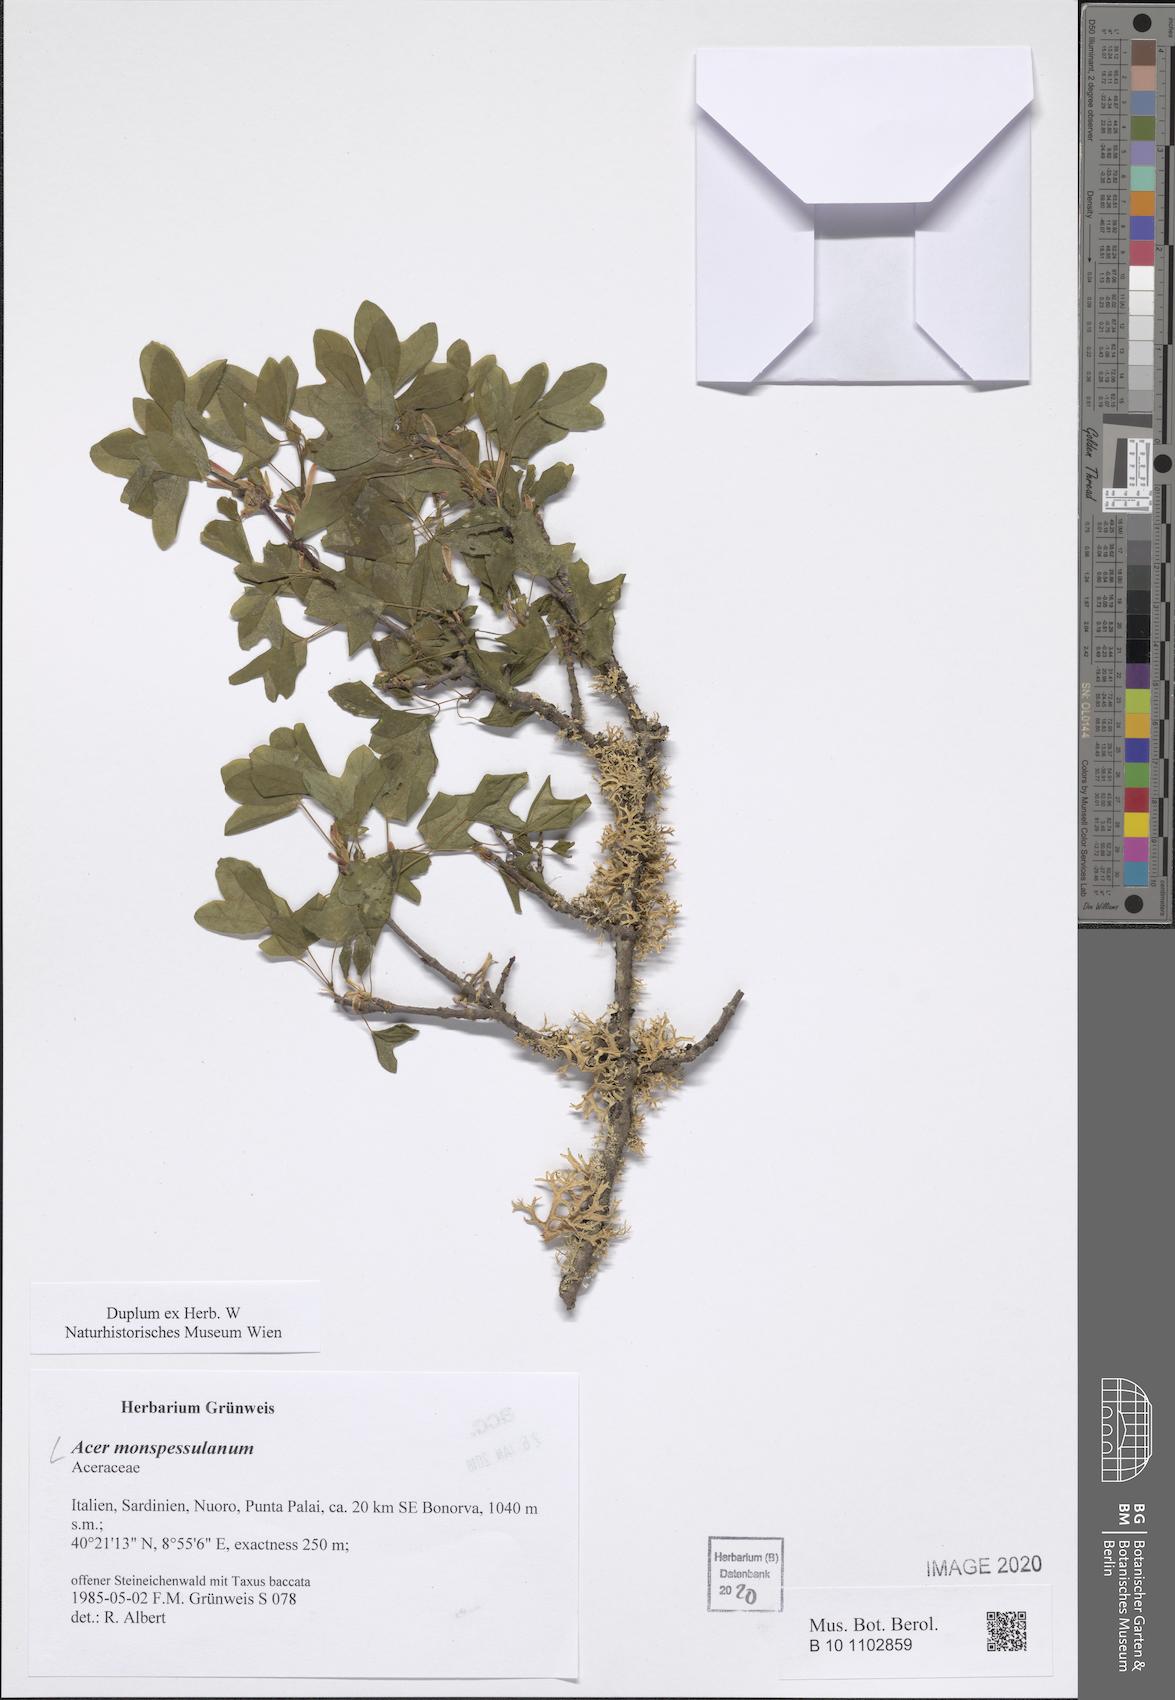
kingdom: Plantae
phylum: Tracheophyta
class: Magnoliopsida
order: Sapindales
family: Sapindaceae
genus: Acer
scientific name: Acer monspessulanum
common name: Montpellier maple
